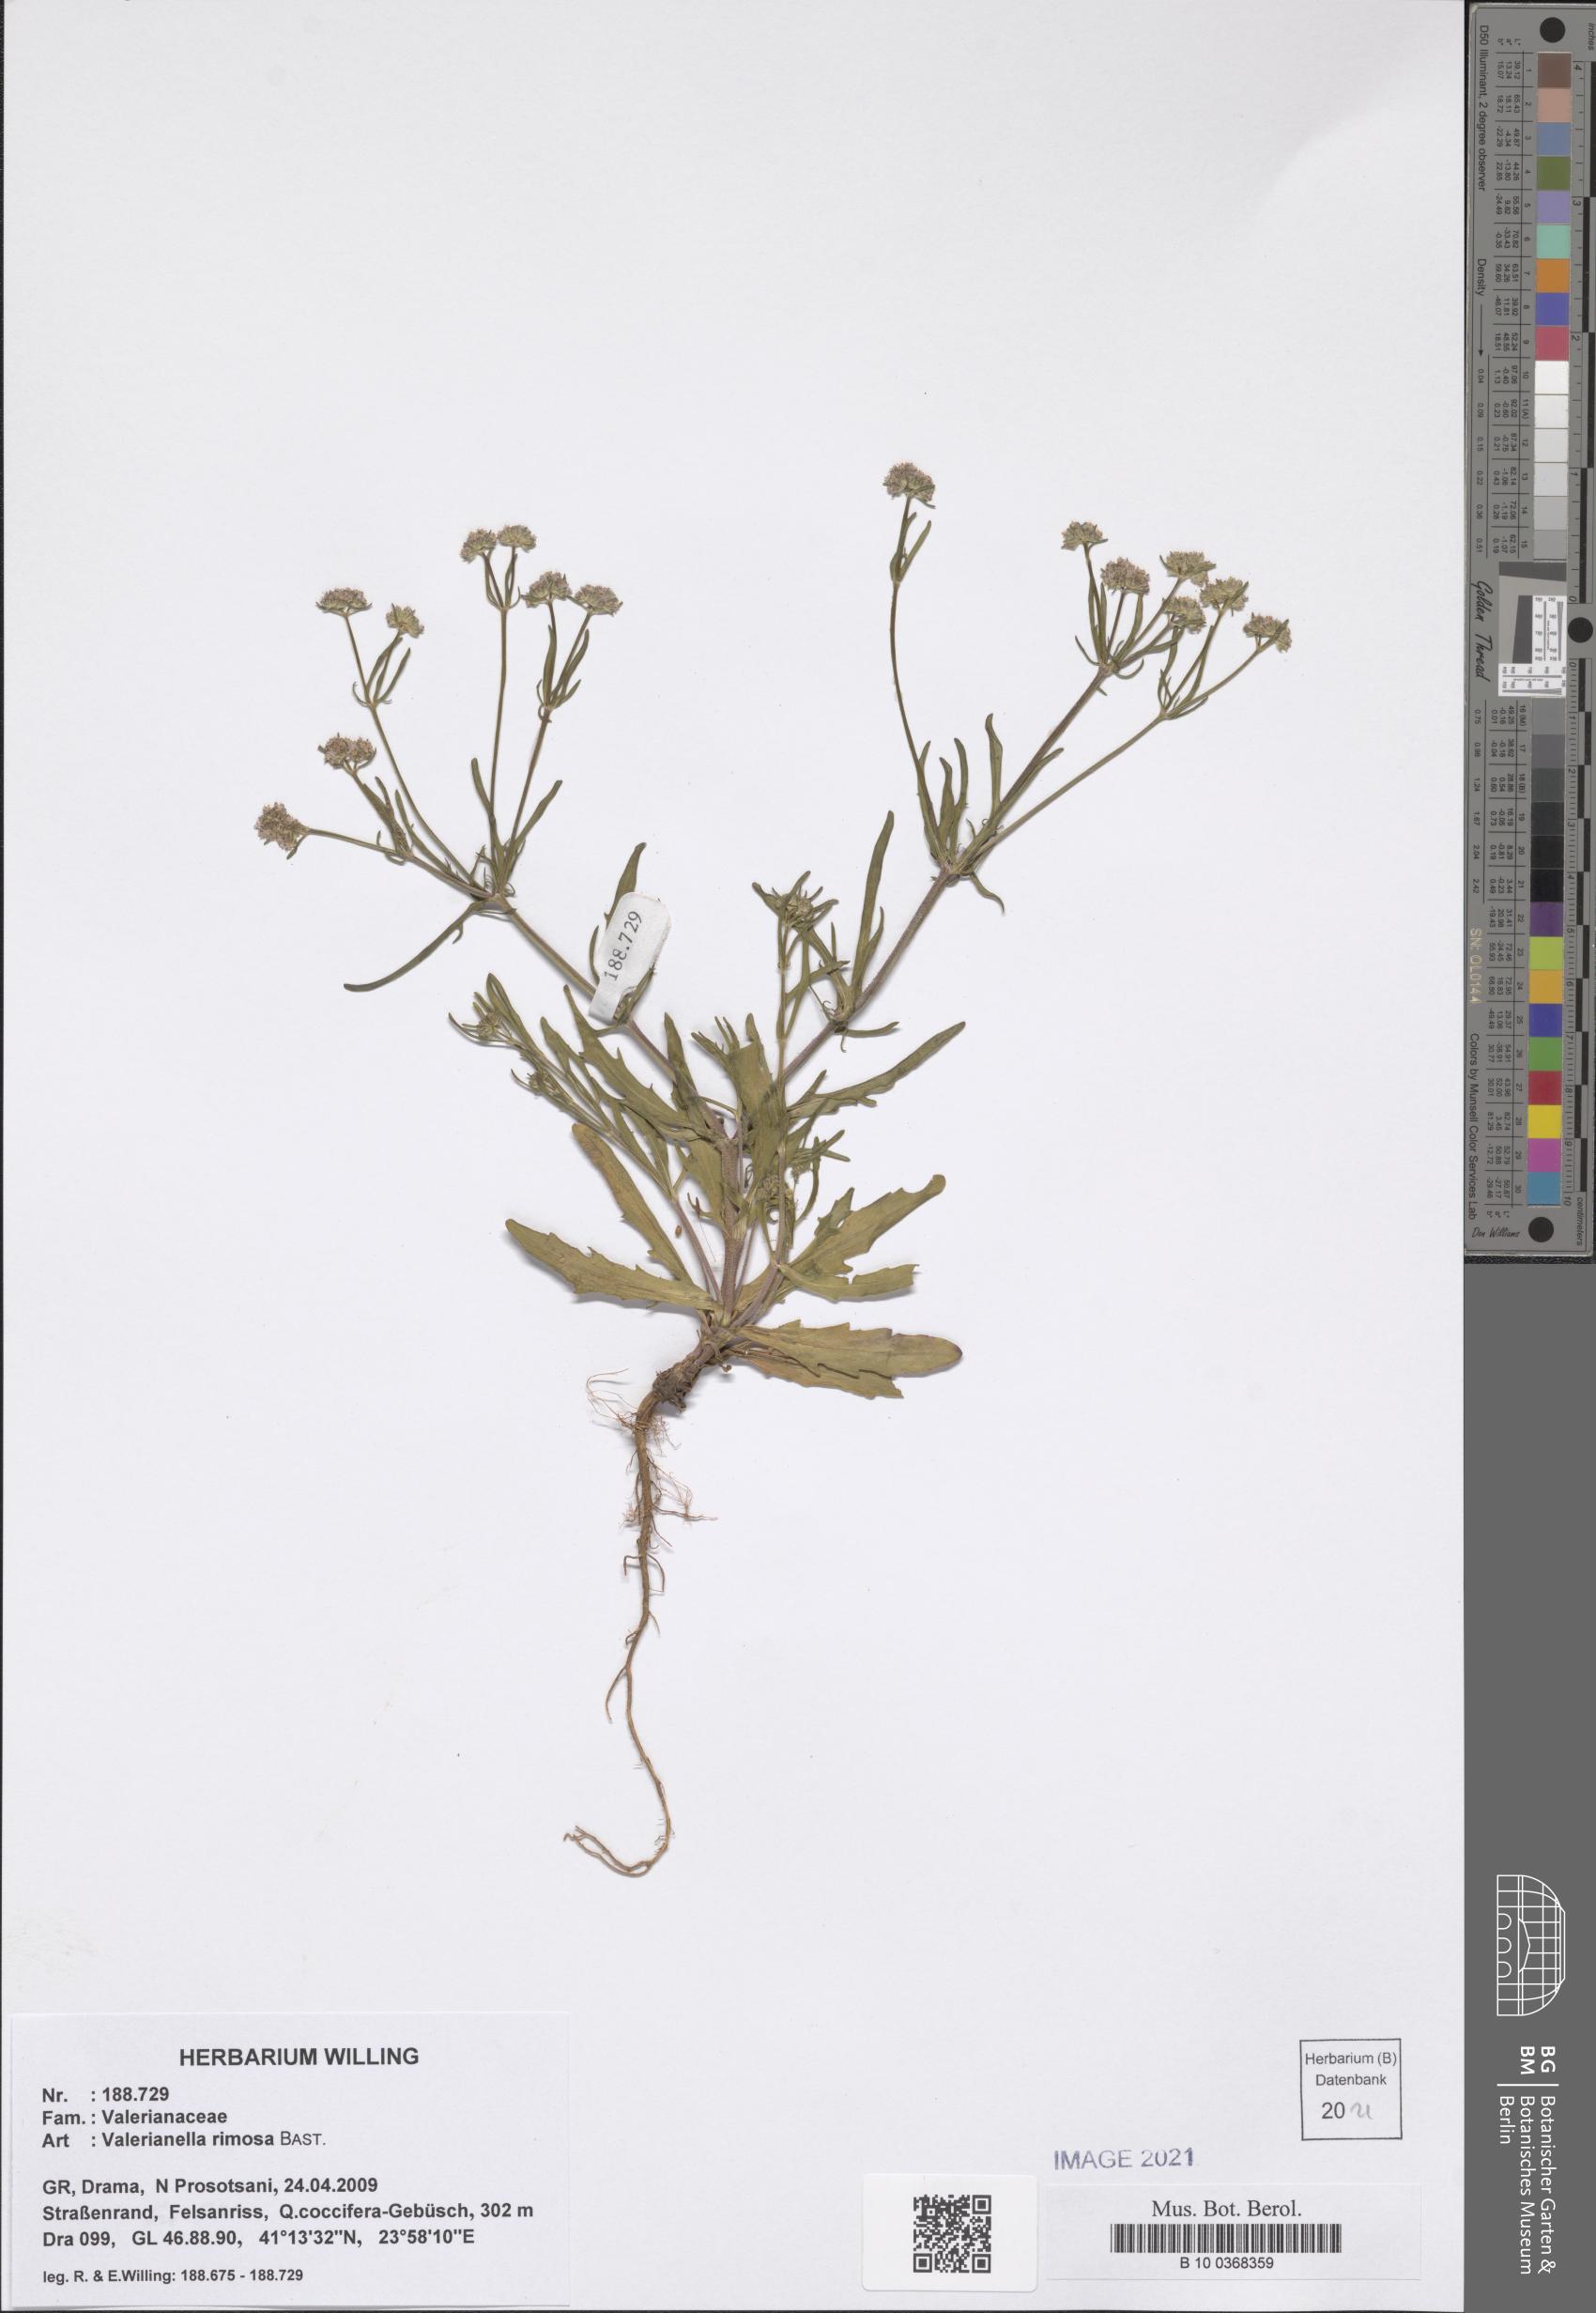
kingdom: Plantae
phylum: Tracheophyta
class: Magnoliopsida
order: Dipsacales
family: Caprifoliaceae
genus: Valerianella
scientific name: Valerianella rimosa
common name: Broad-fruited cornsalad
